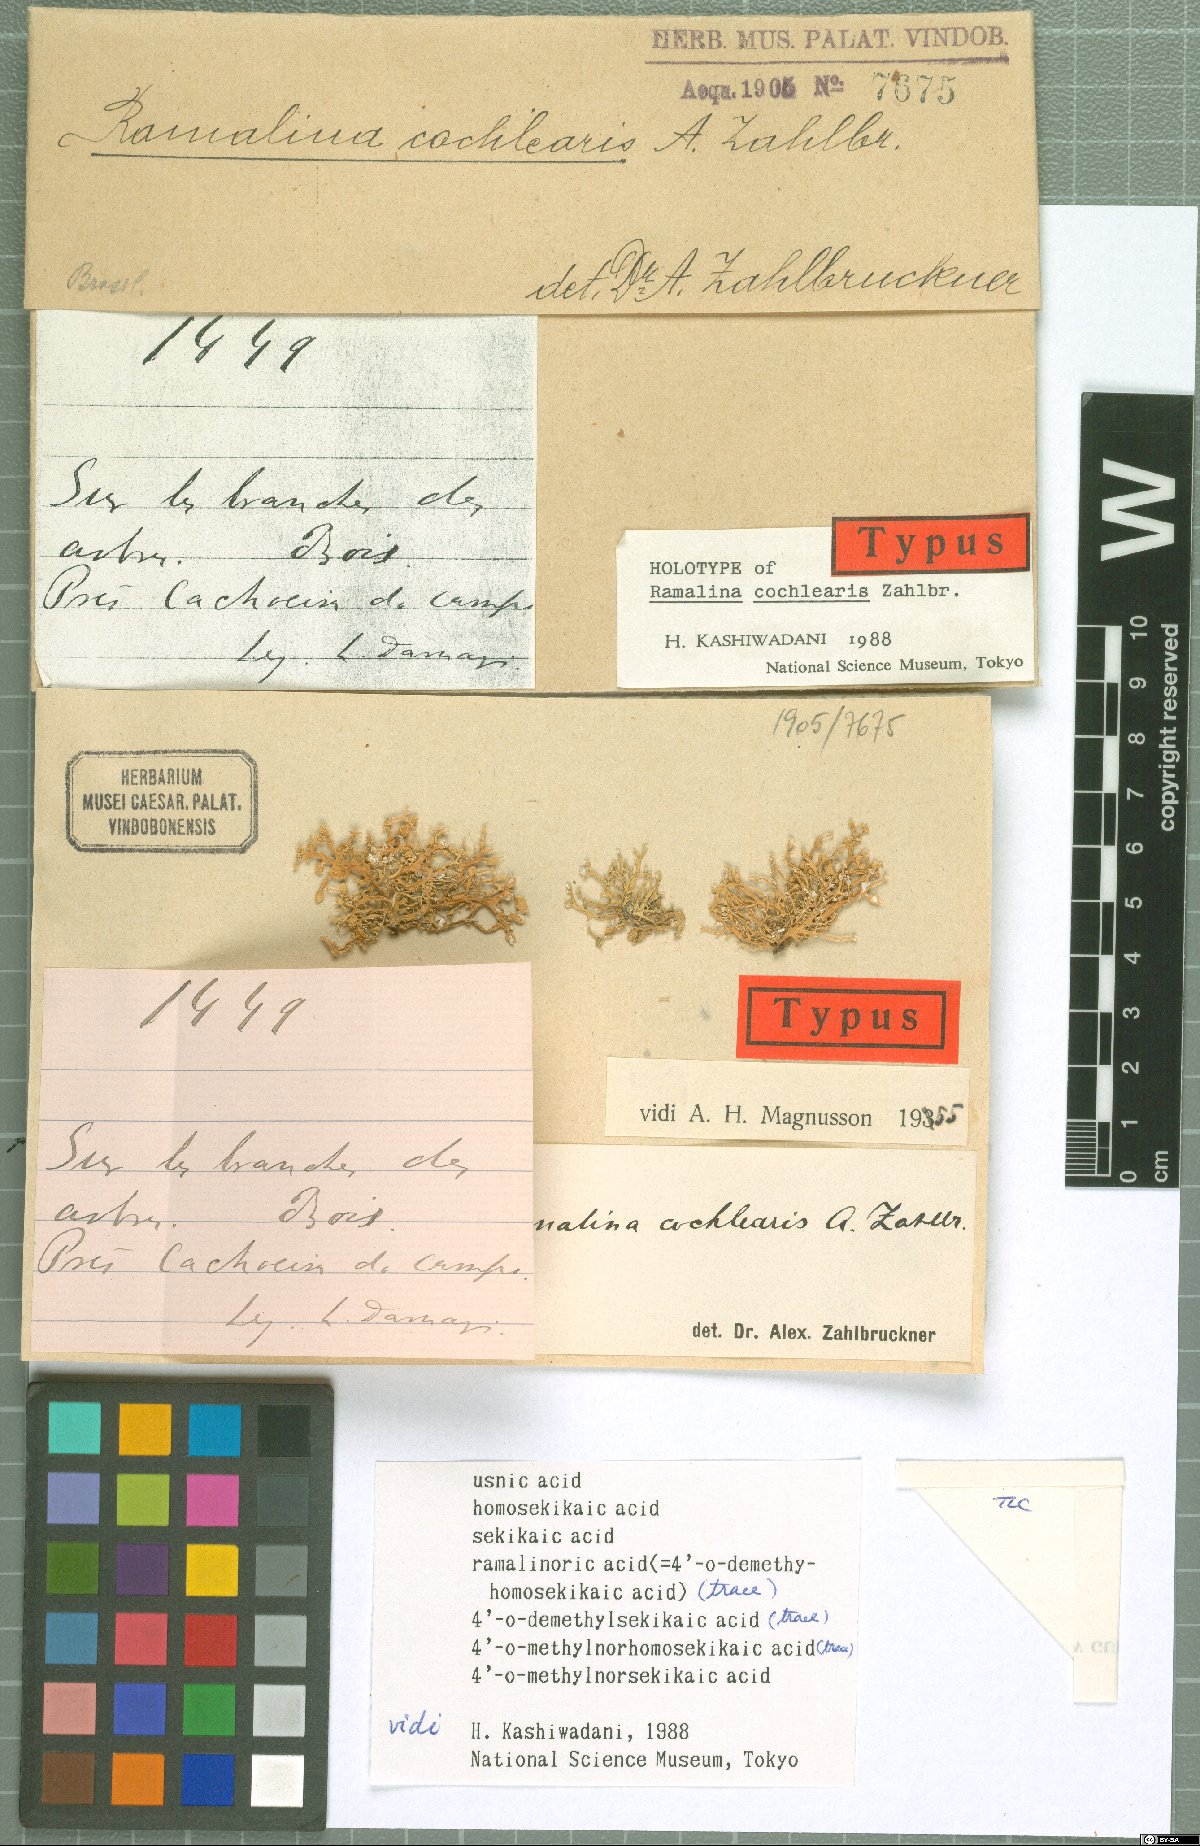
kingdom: Fungi
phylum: Ascomycota
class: Lecanoromycetes
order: Lecanorales
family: Ramalinaceae
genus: Ramalina
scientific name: Ramalina cochlearis
